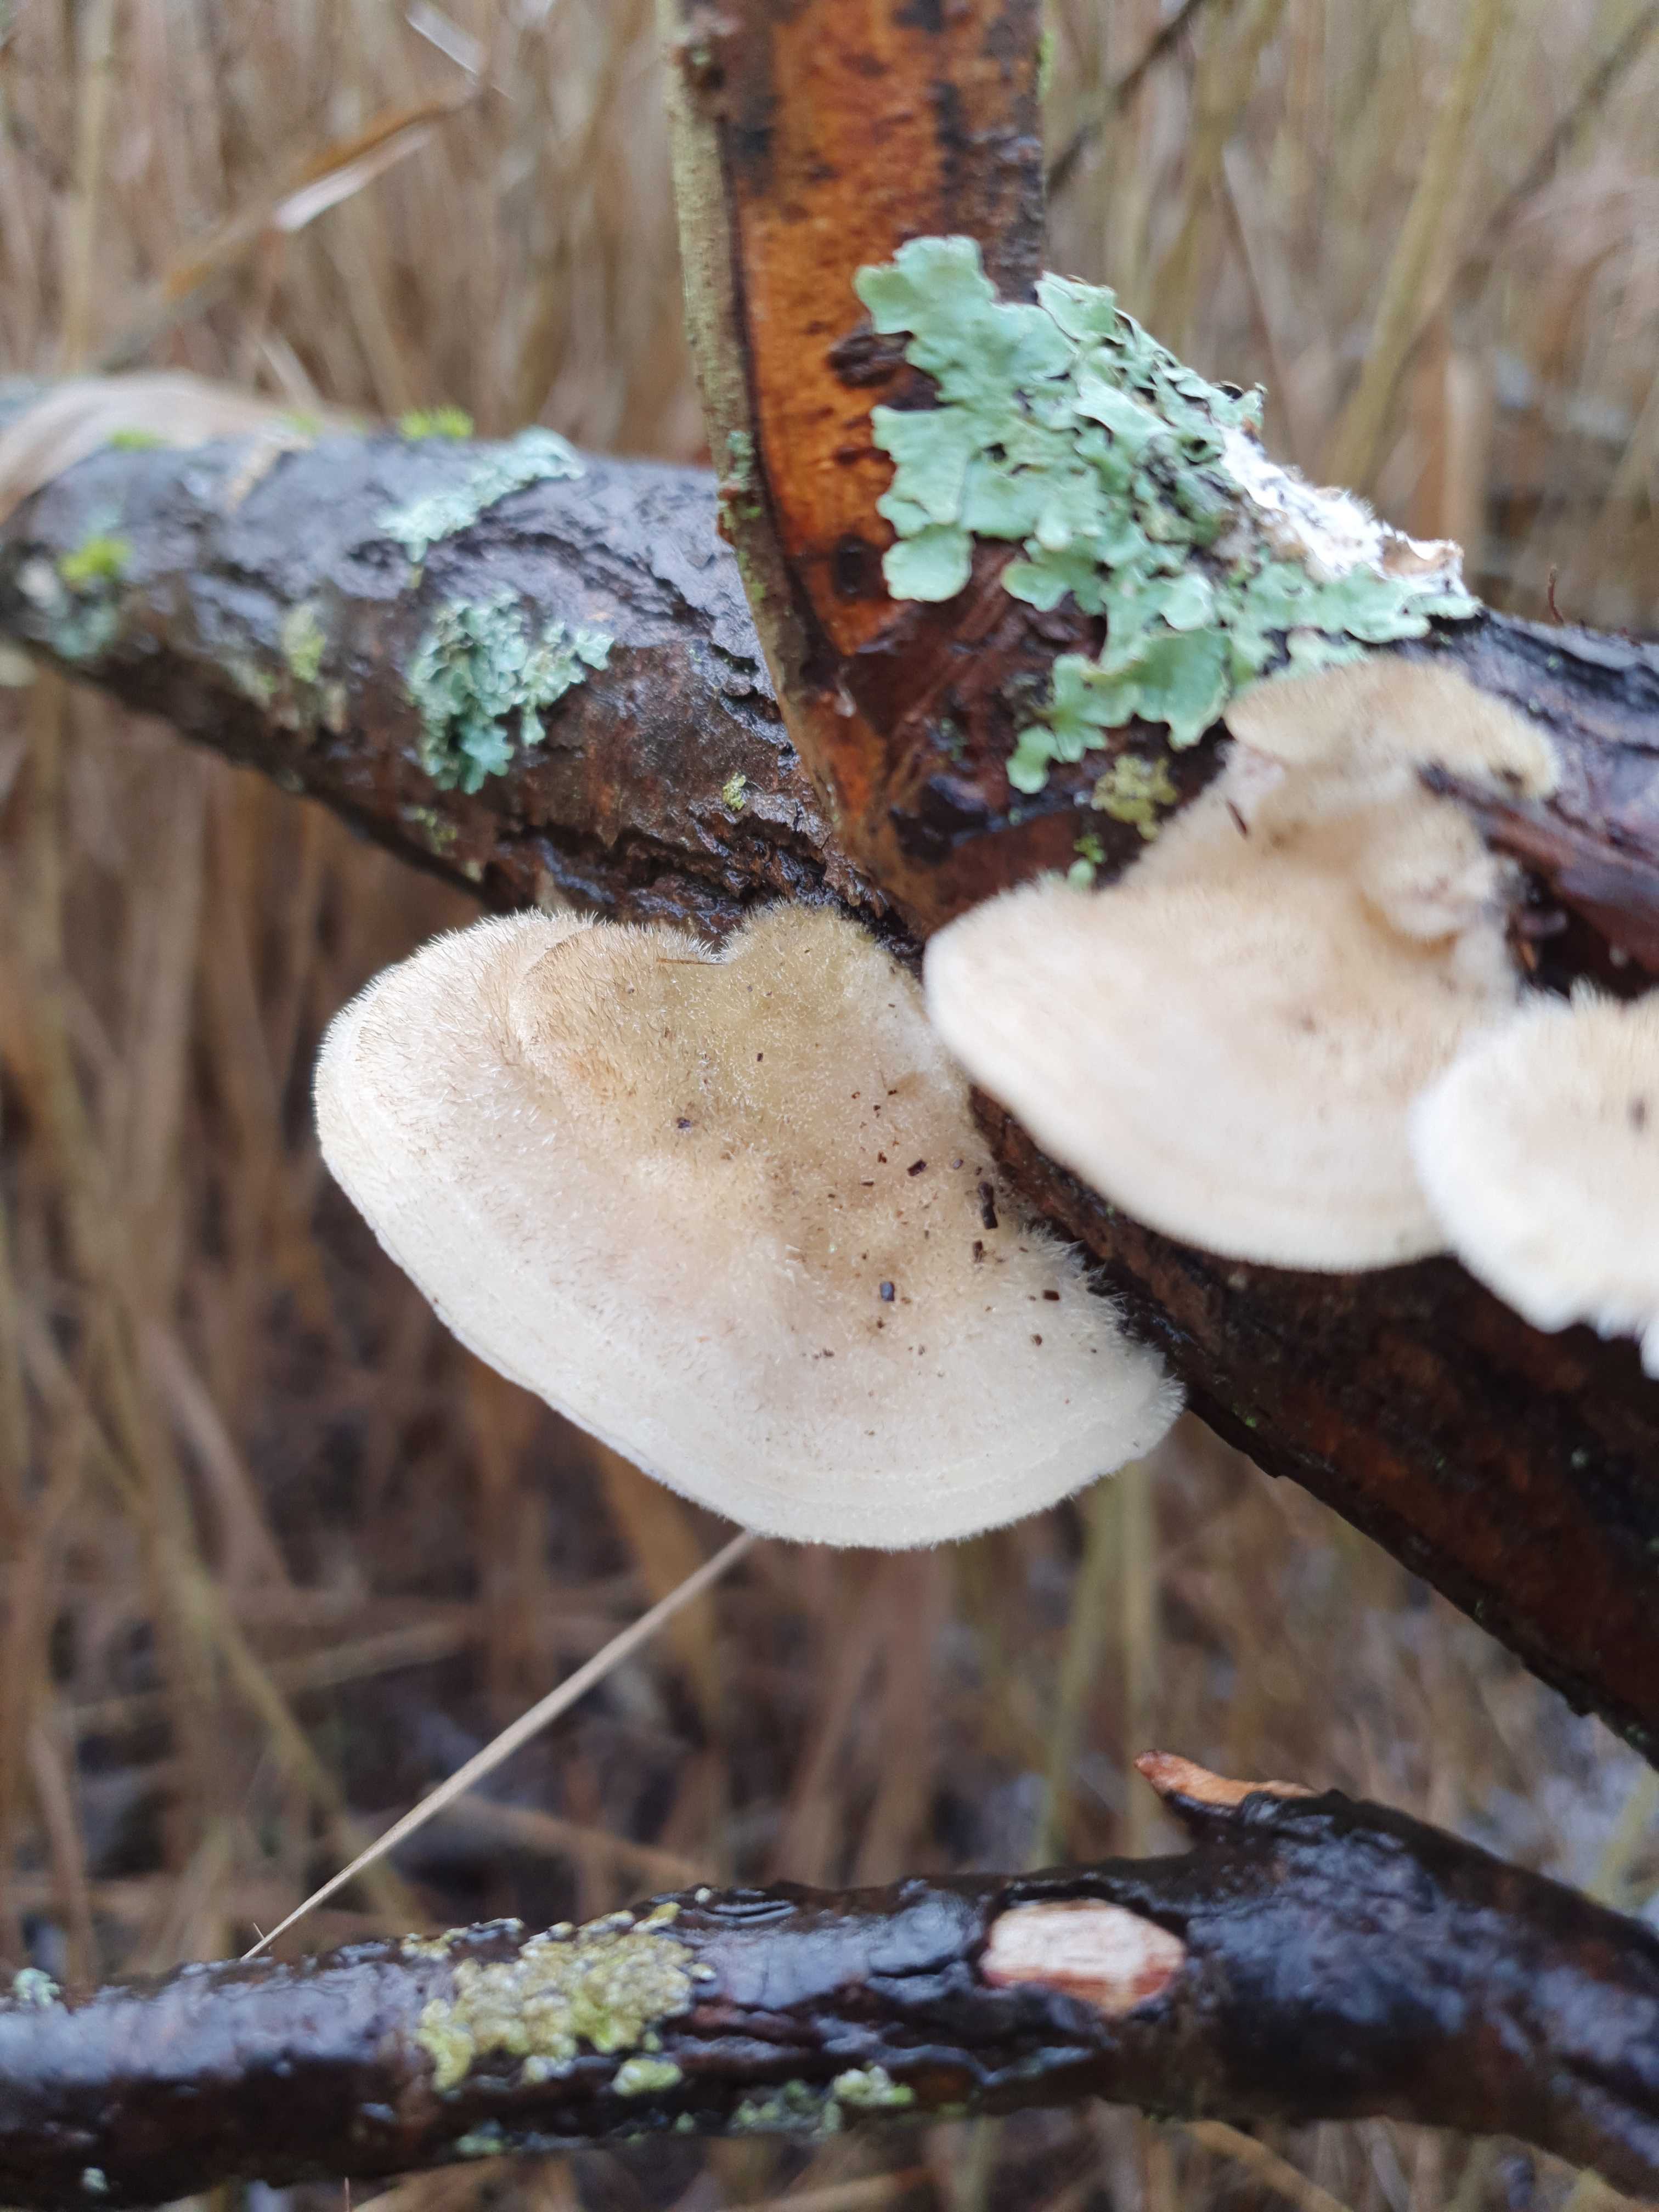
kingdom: Fungi
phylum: Basidiomycota
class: Agaricomycetes
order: Polyporales
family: Polyporaceae
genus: Trametes
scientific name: Trametes hirsuta
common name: håret læderporesvamp
